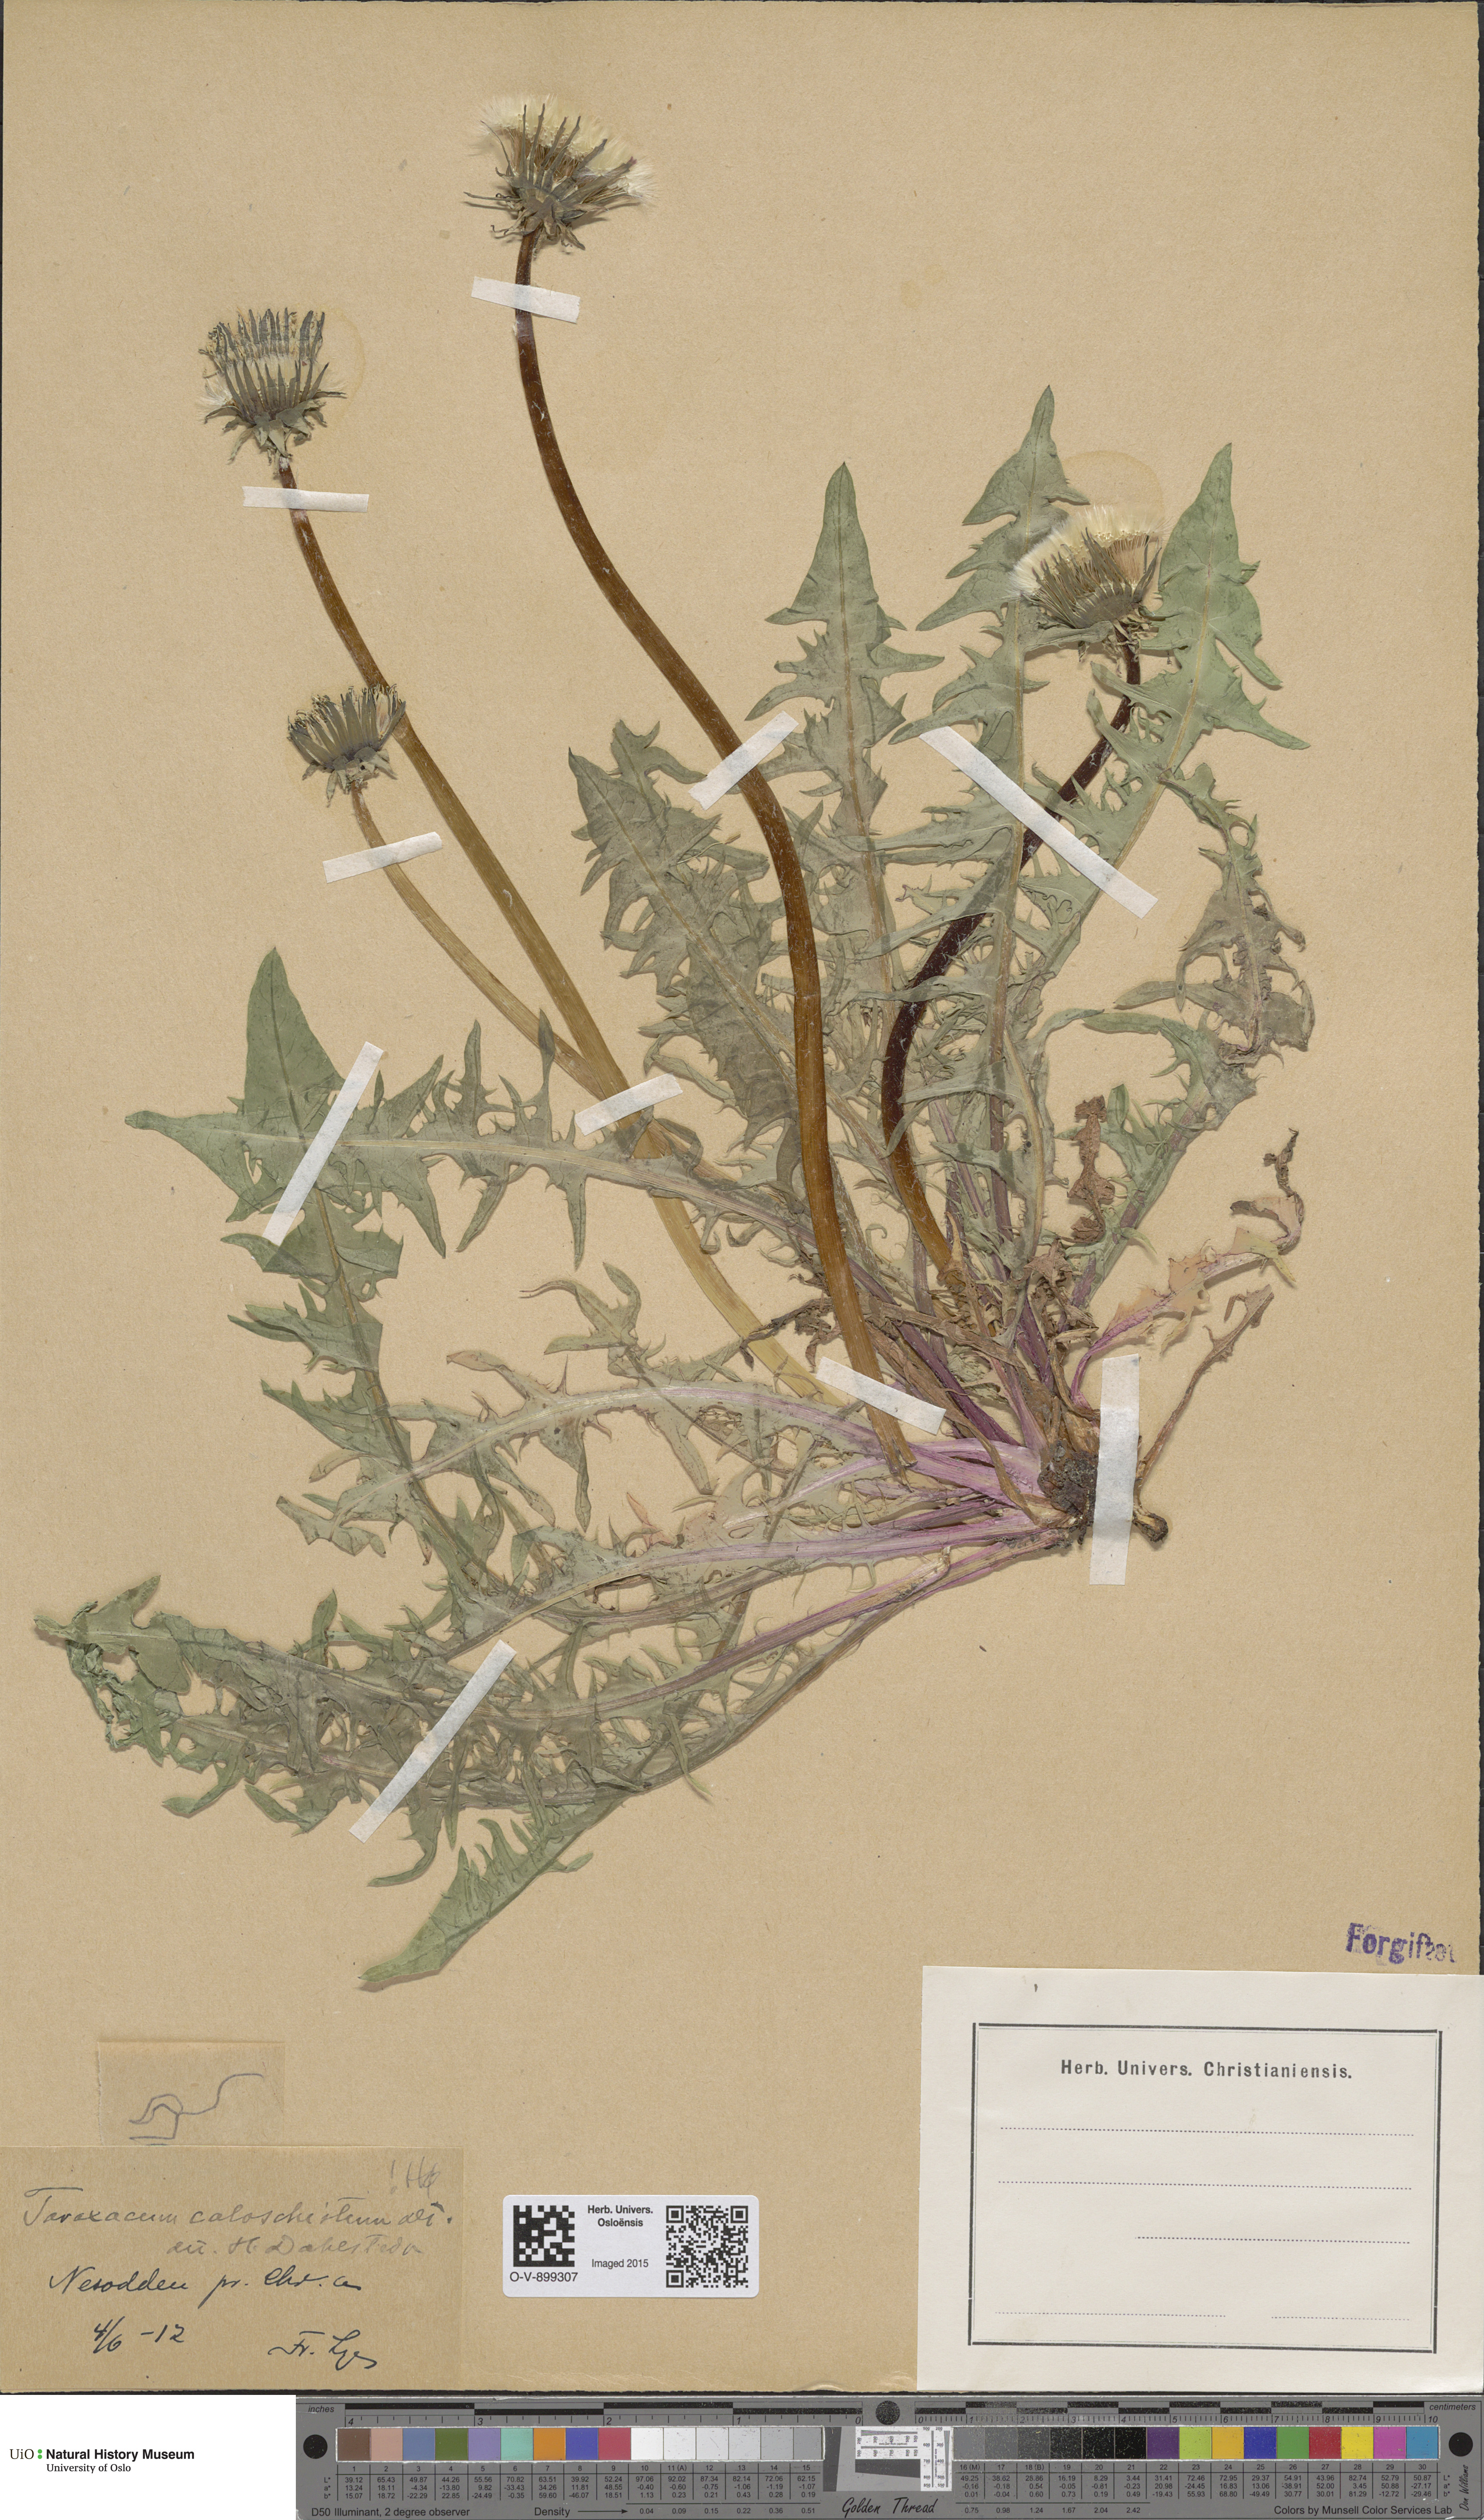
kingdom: Plantae
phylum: Tracheophyta
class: Magnoliopsida
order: Asterales
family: Asteraceae
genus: Taraxacum
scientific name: Taraxacum caloschistum
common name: Brilliant-stalked dandelion
